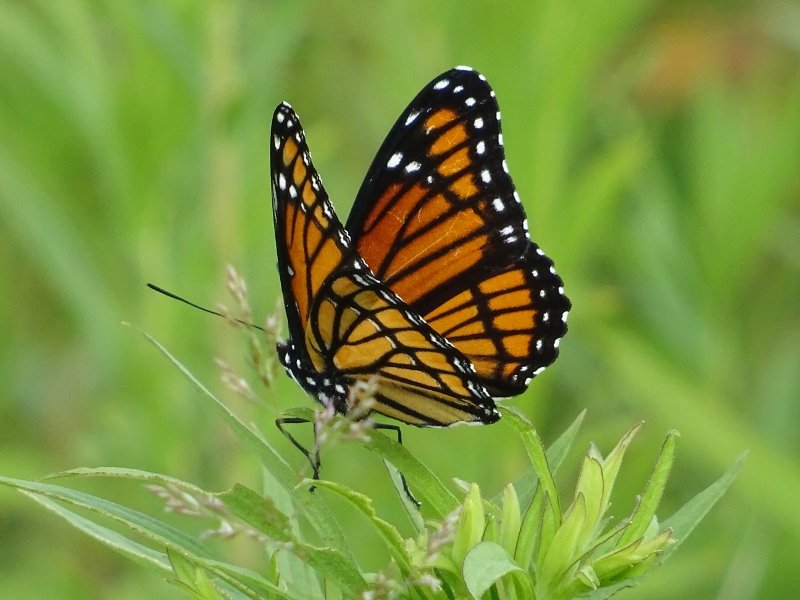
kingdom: Animalia
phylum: Arthropoda
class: Insecta
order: Lepidoptera
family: Nymphalidae
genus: Limenitis
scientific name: Limenitis archippus
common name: Viceroy
